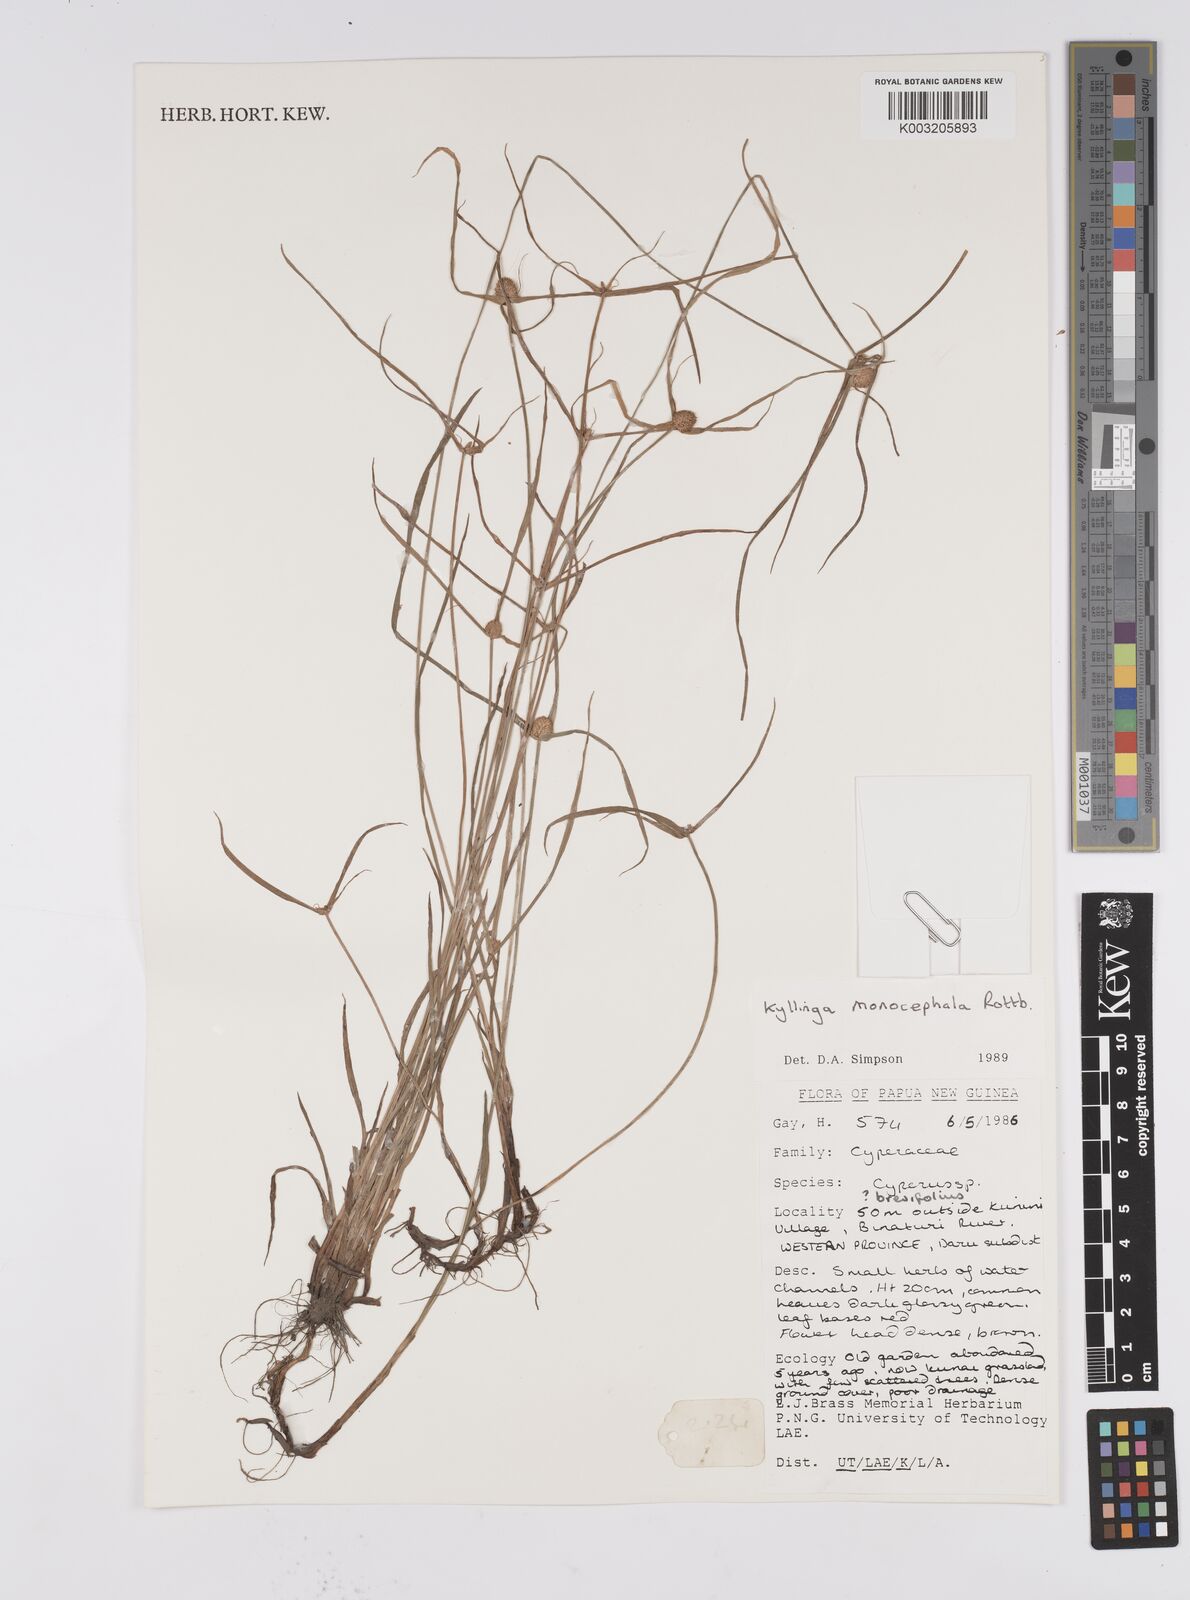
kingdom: Plantae
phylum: Tracheophyta
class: Liliopsida
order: Poales
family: Cyperaceae
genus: Cyperus
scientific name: Cyperus nemoralis
